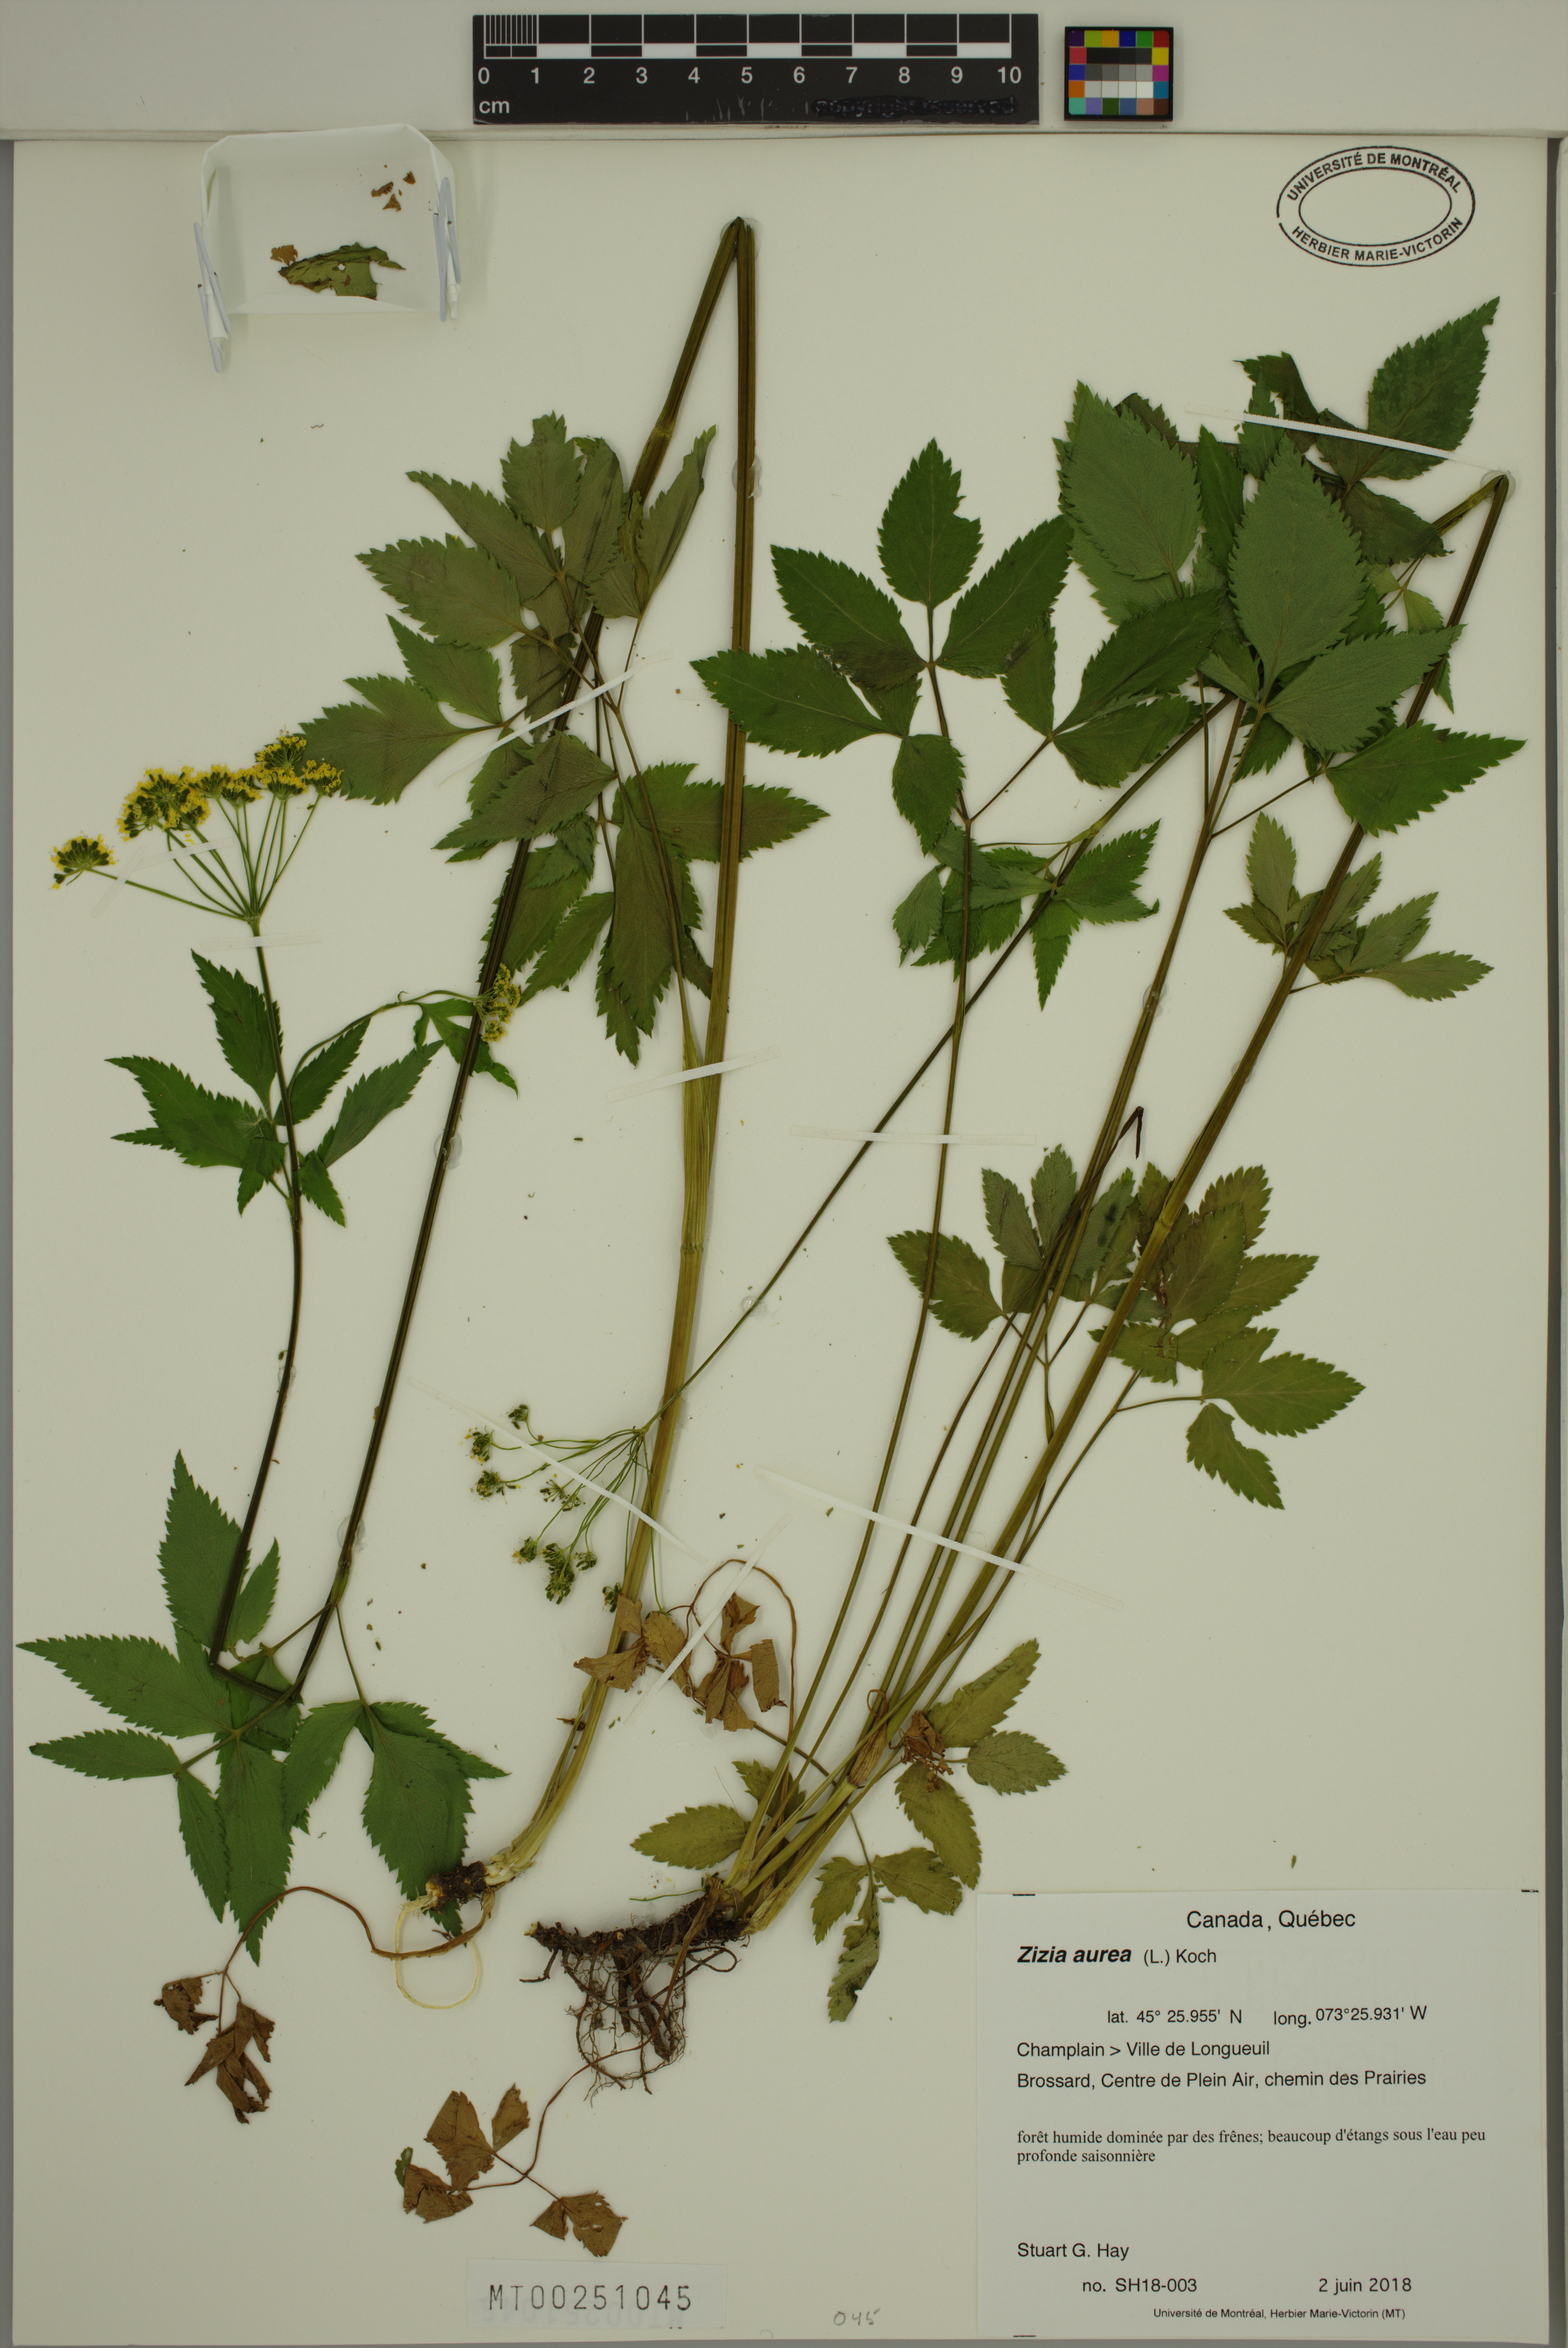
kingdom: Plantae
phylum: Tracheophyta
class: Magnoliopsida
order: Apiales
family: Apiaceae
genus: Zizia
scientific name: Zizia aurea
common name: Golden alexanders
